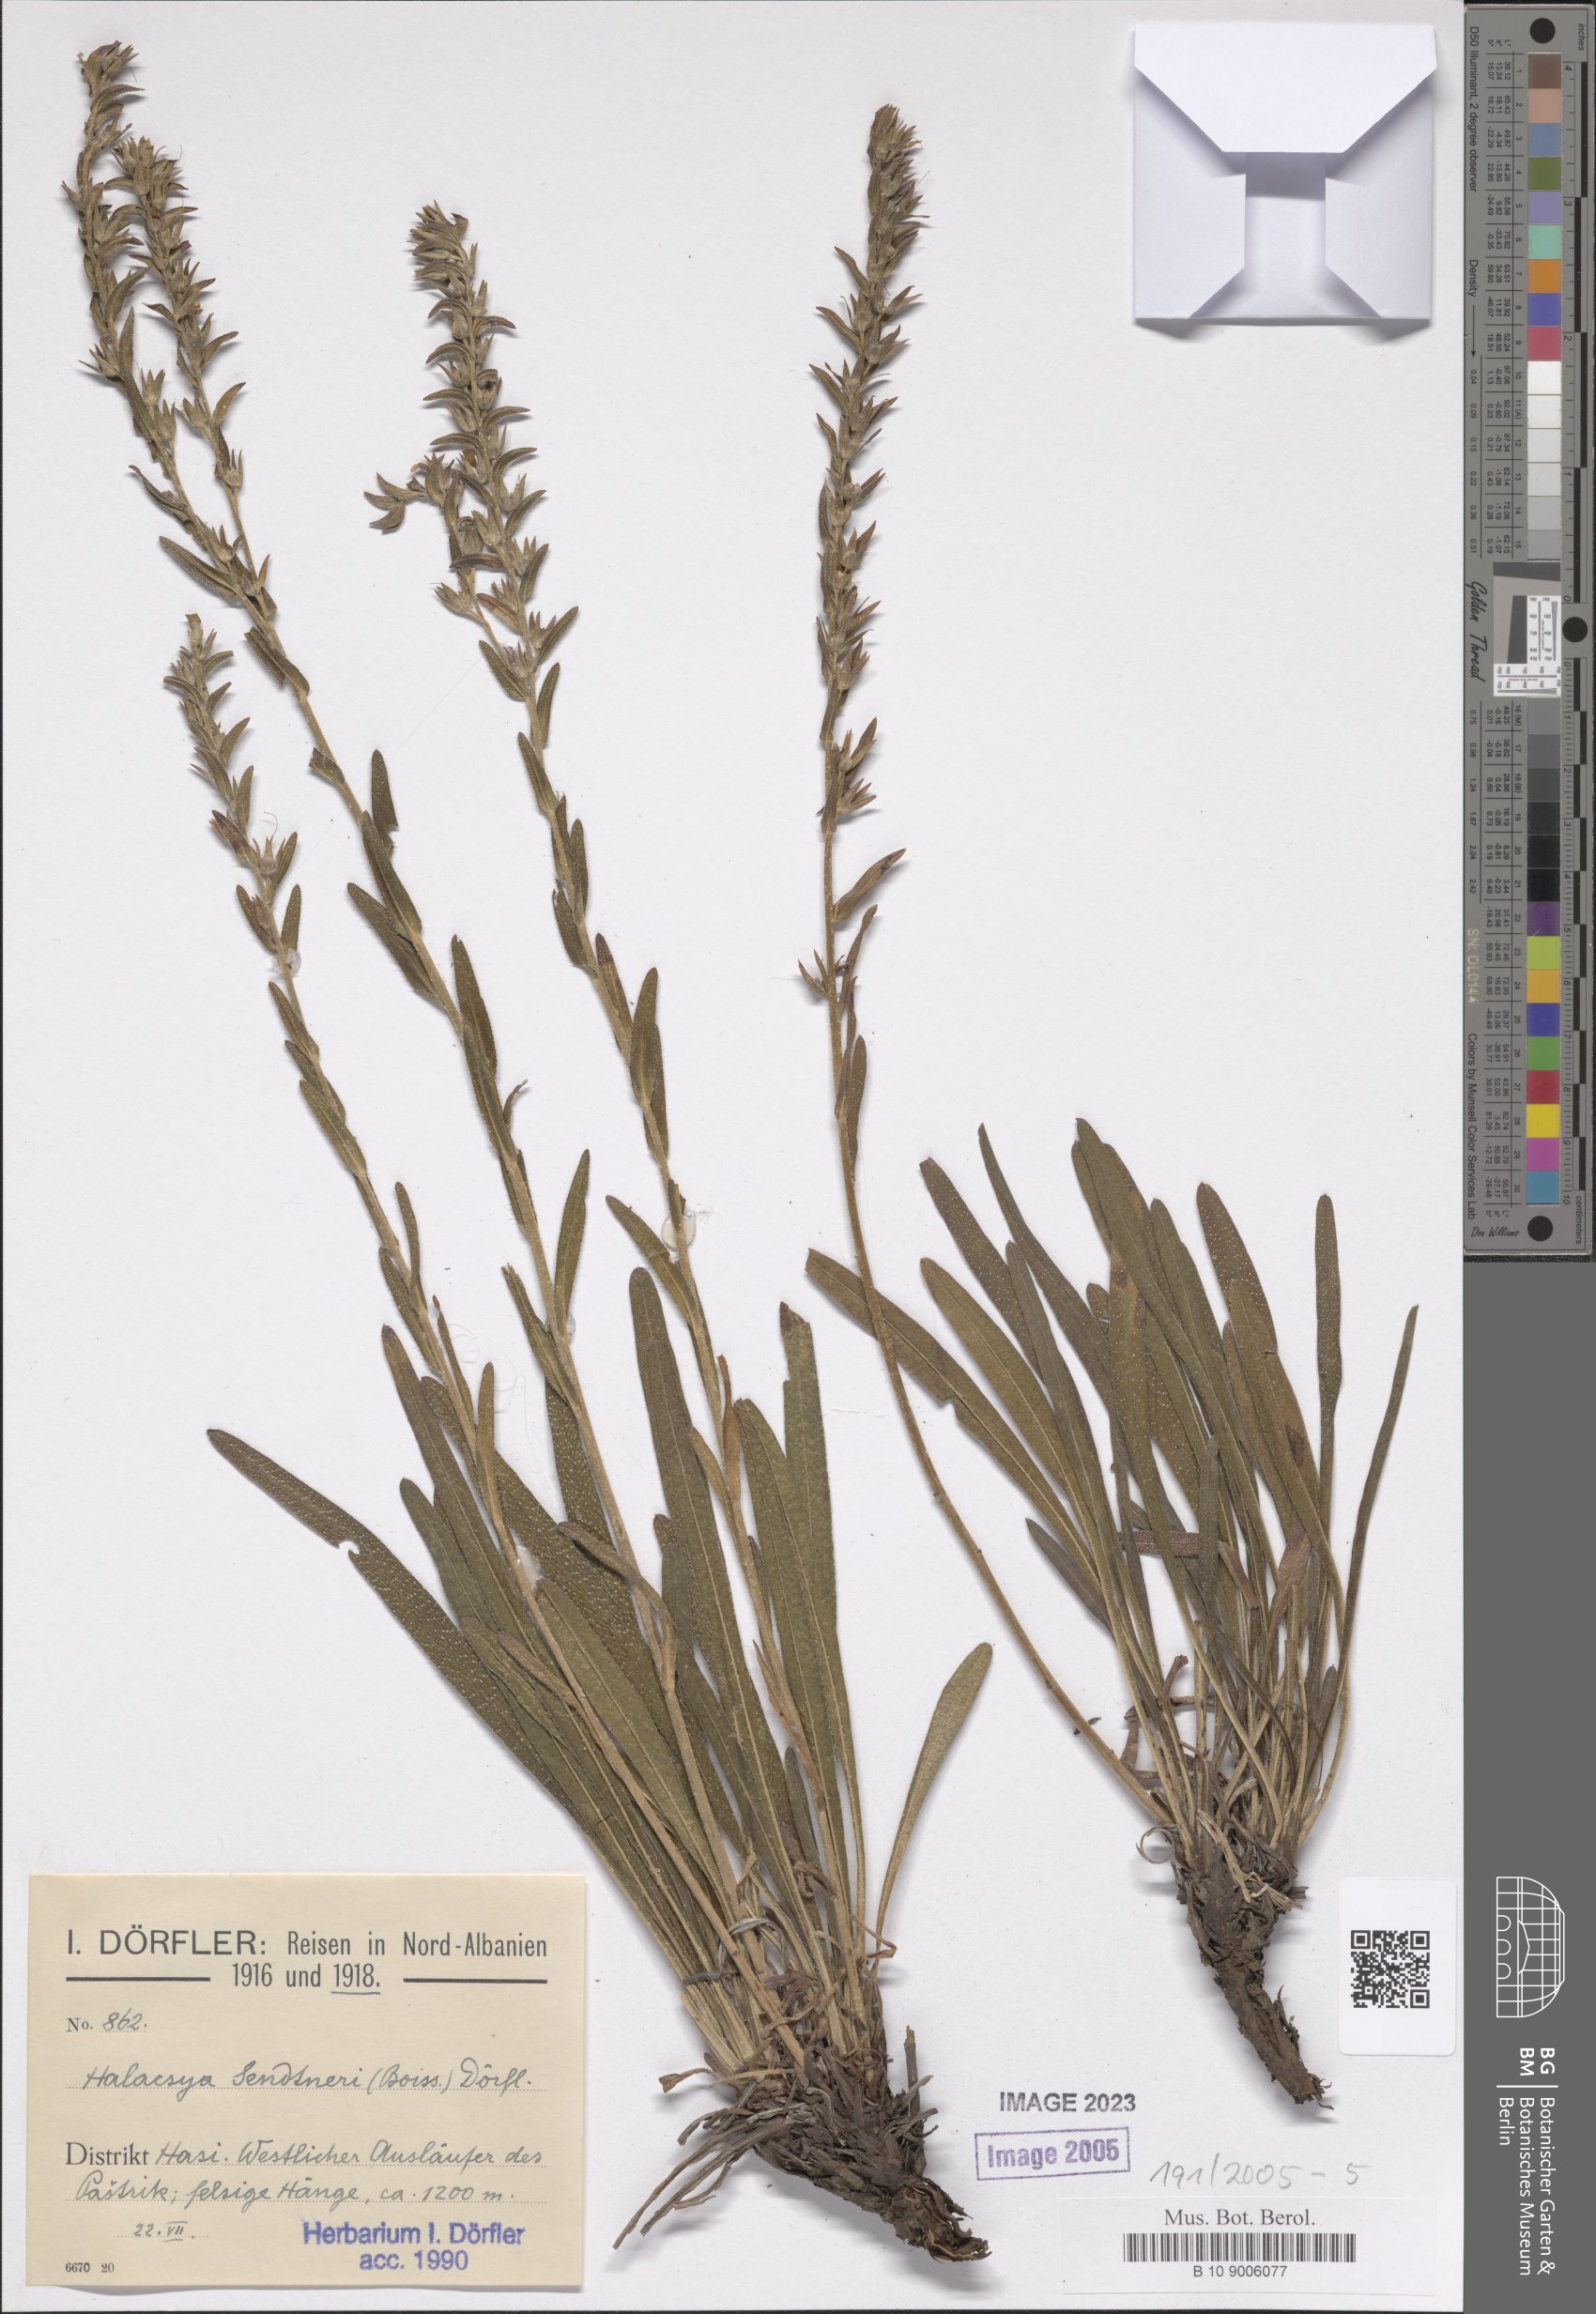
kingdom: Plantae
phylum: Tracheophyta
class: Magnoliopsida
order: Boraginales
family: Boraginaceae
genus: Halacsya
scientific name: Halacsya sendtneri
